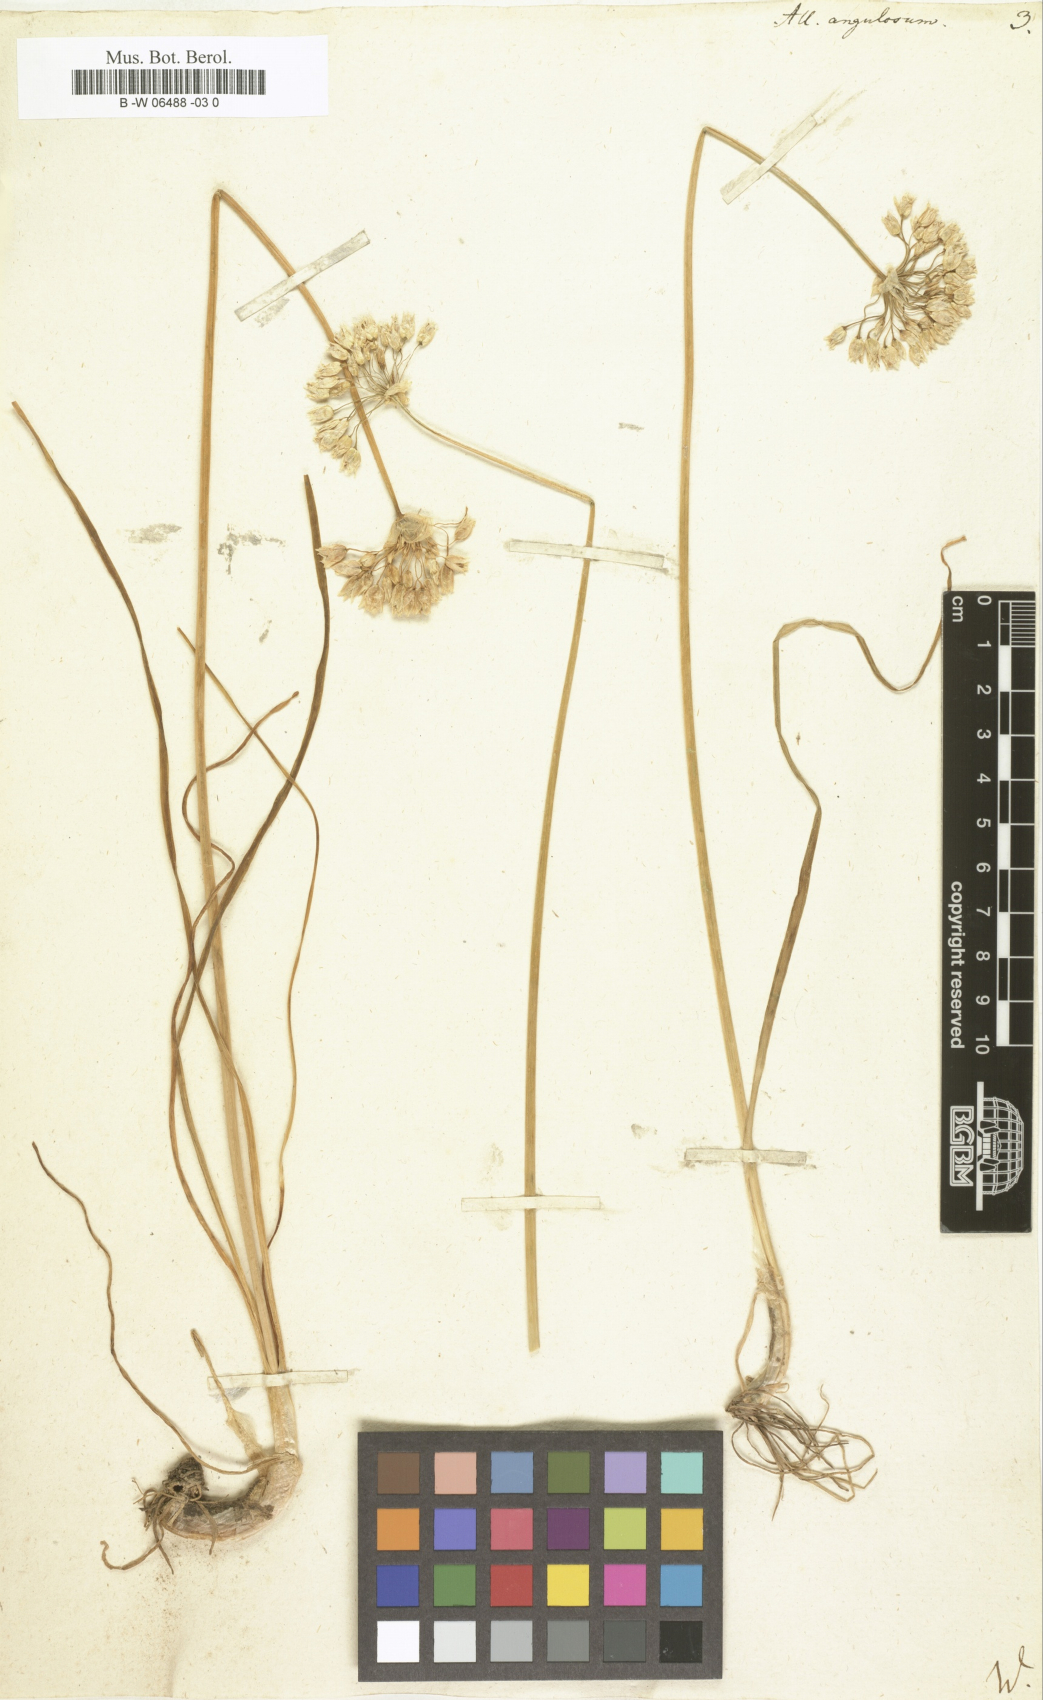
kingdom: Plantae
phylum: Tracheophyta
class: Liliopsida
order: Asparagales
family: Amaryllidaceae
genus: Allium
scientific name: Allium angulosum
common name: Mouse garlic
